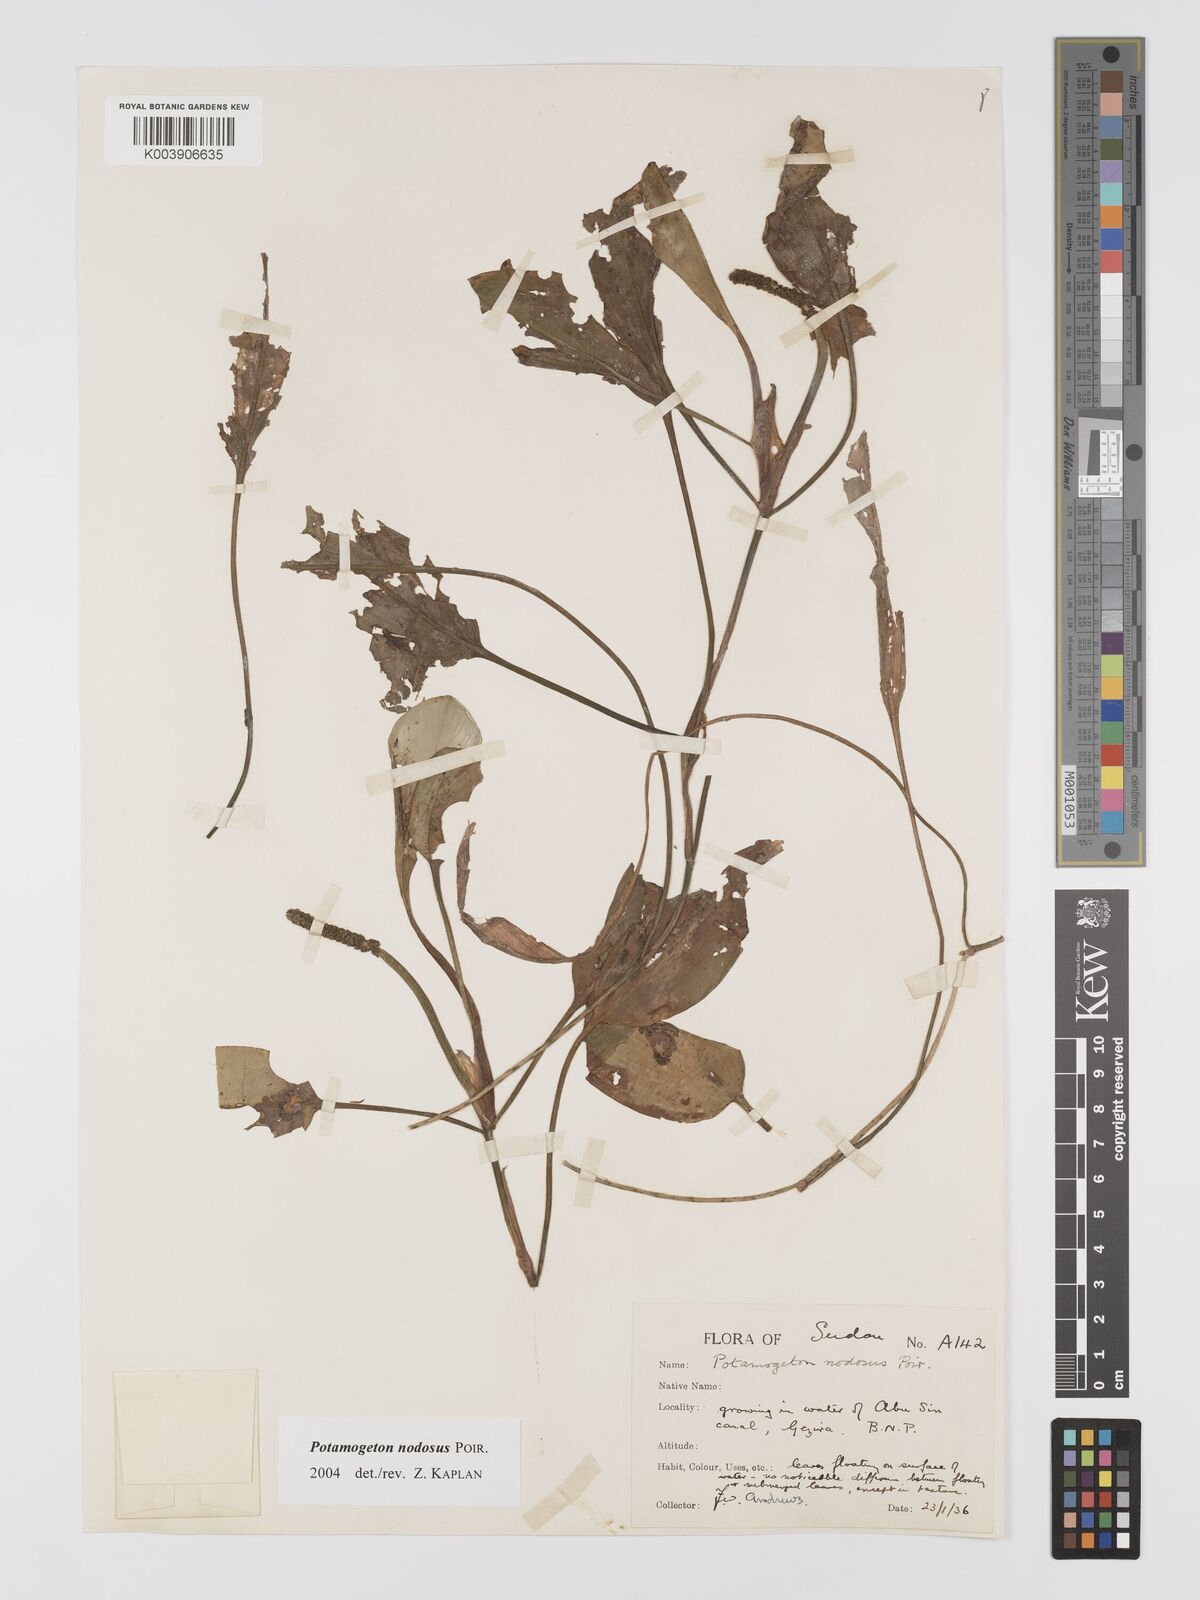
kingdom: Plantae
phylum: Tracheophyta
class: Liliopsida
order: Alismatales
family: Potamogetonaceae
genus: Potamogeton
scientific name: Potamogeton nodosus
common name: Loddon pondweed
